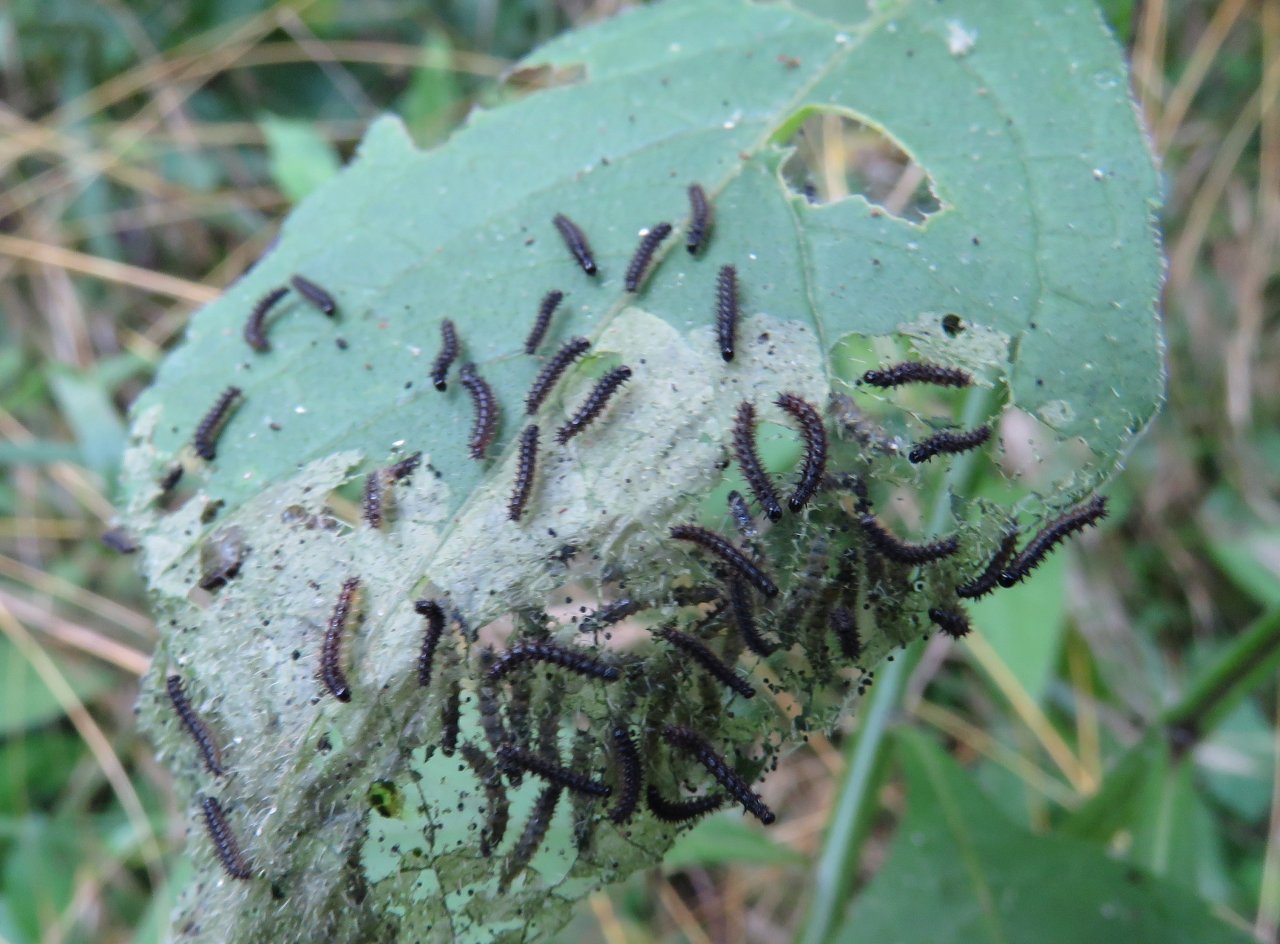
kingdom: Animalia
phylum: Arthropoda
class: Insecta
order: Lepidoptera
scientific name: Lepidoptera
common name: Butterflies
